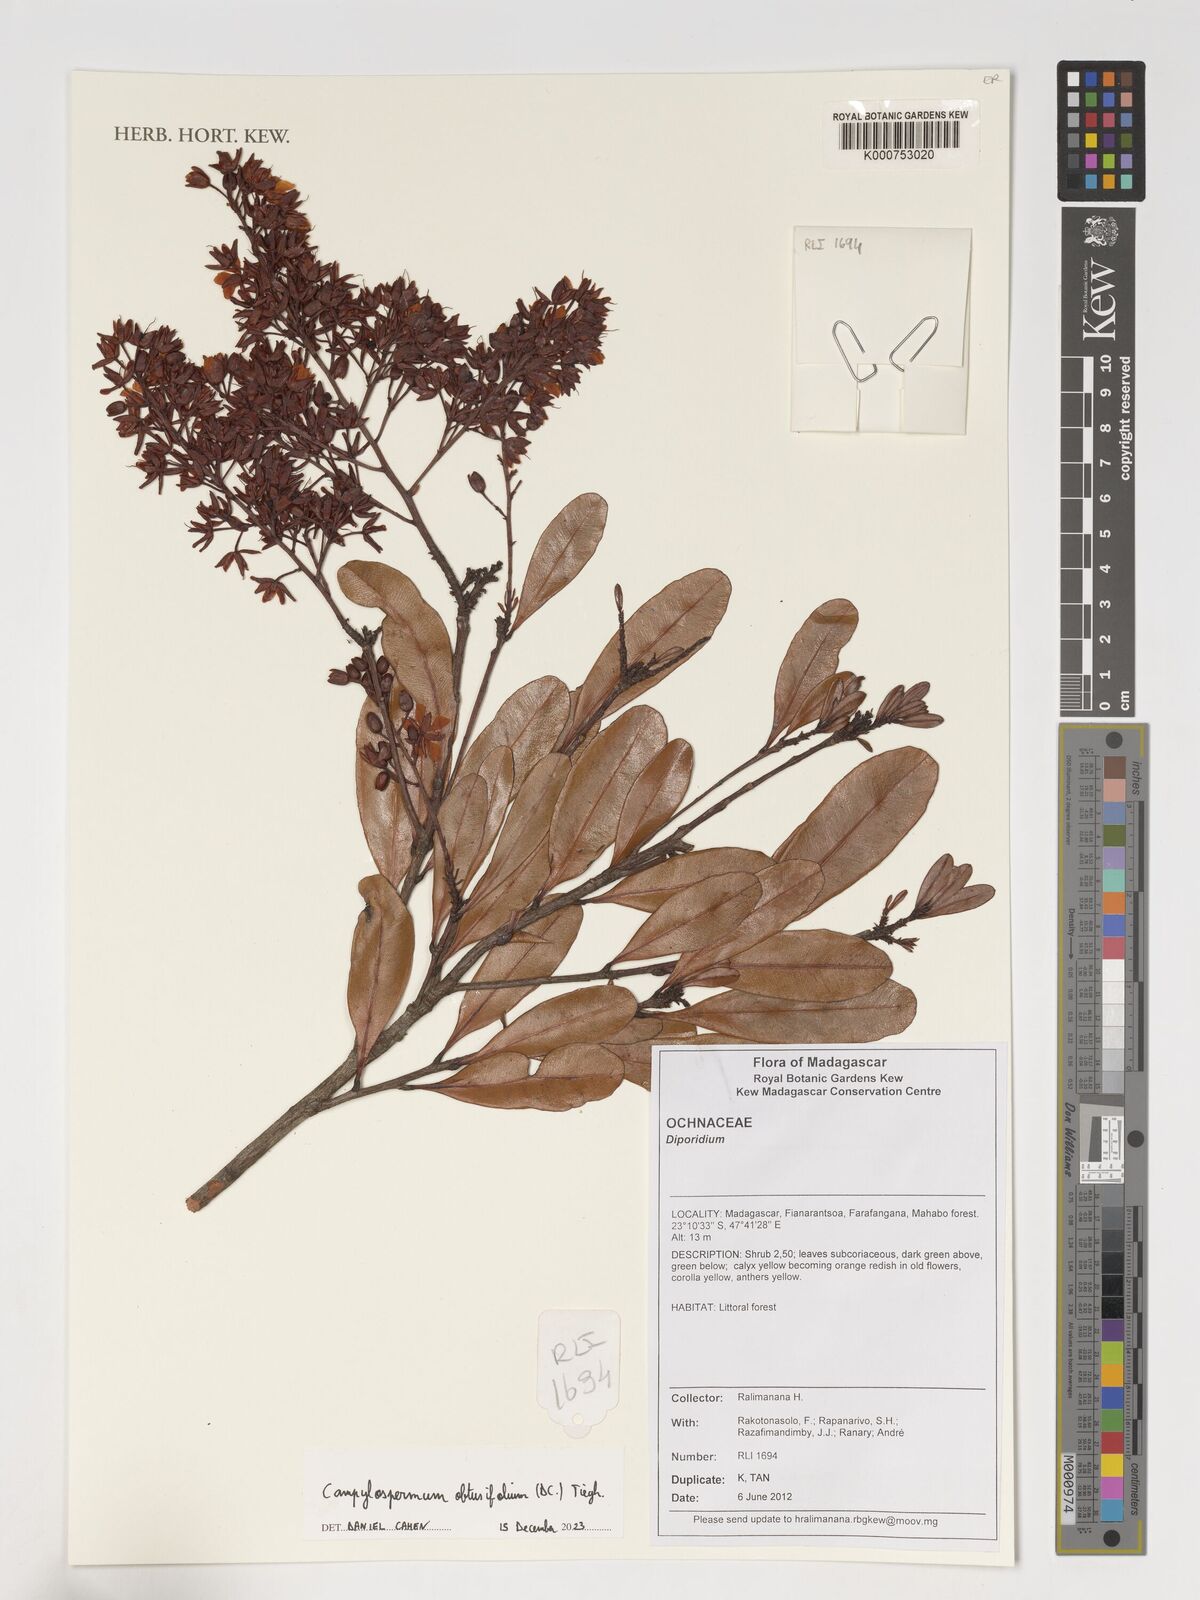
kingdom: Plantae
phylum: Tracheophyta
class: Magnoliopsida
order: Malpighiales
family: Ochnaceae
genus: Ochna
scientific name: Ochna
